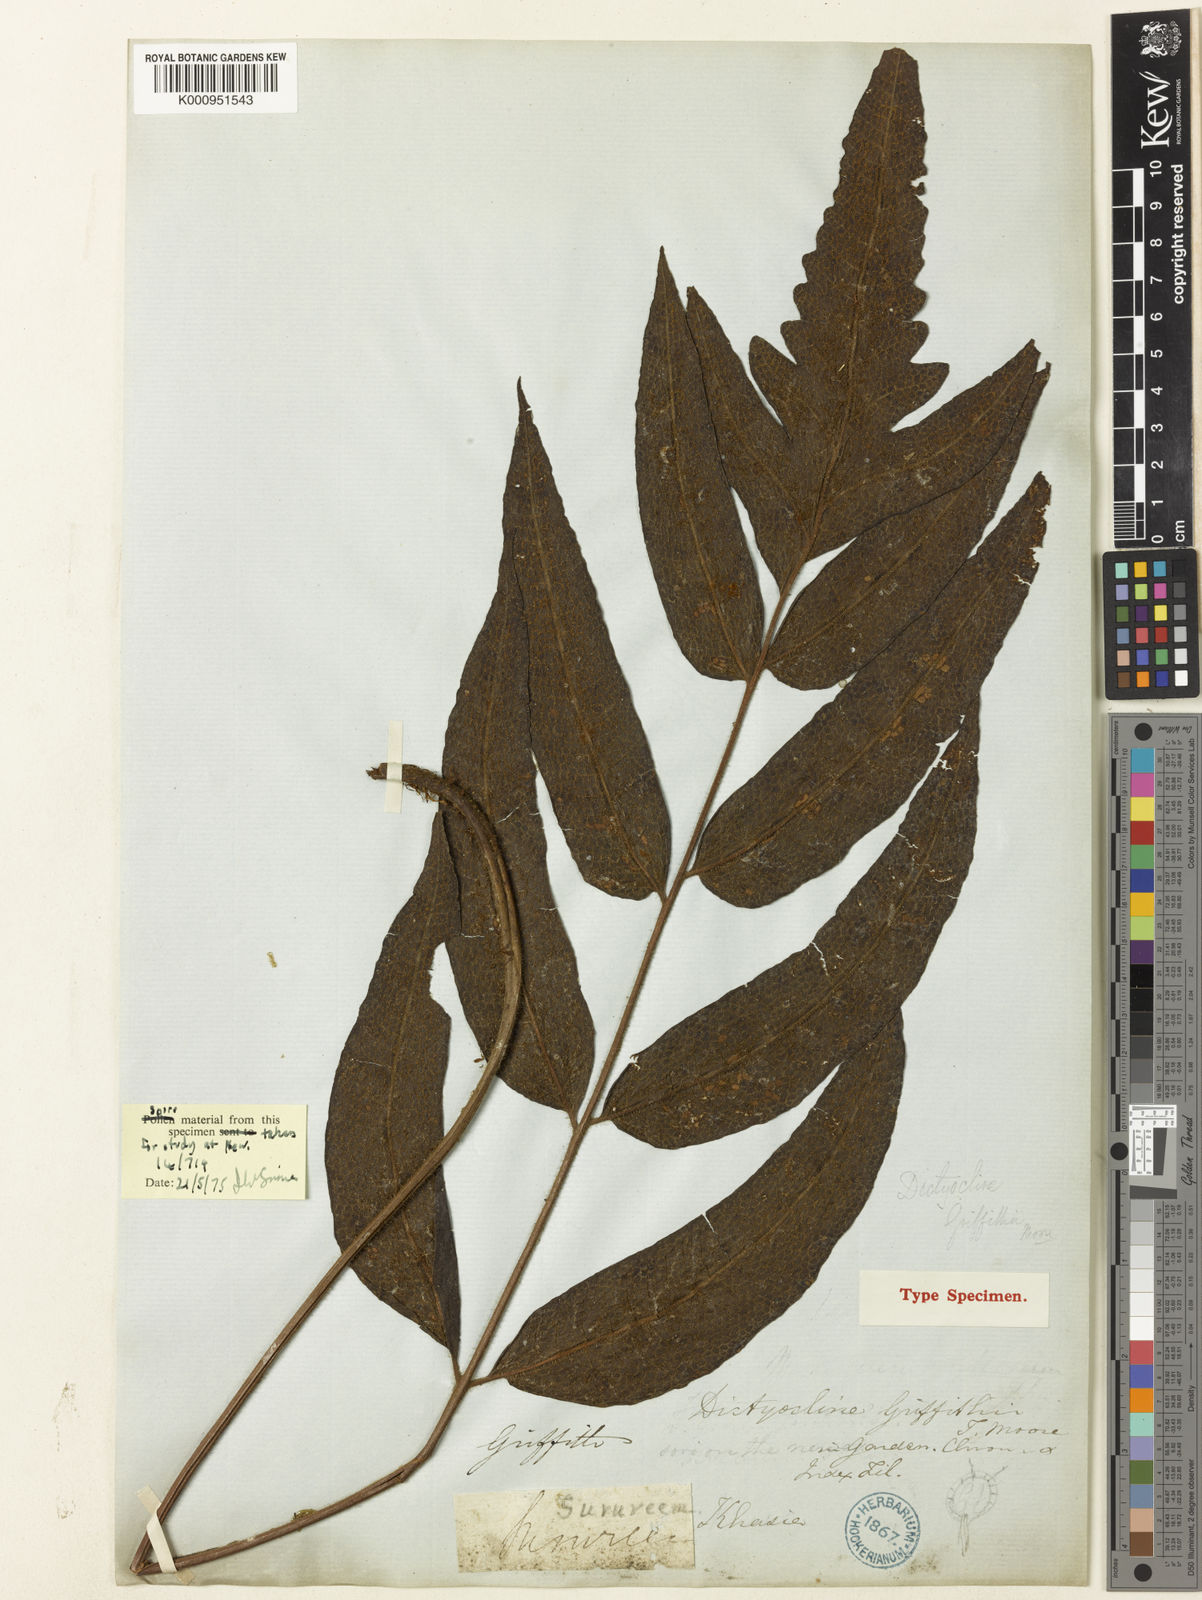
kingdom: Plantae
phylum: Tracheophyta
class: Polypodiopsida
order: Polypodiales
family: Thelypteridaceae
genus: Stegnogramma
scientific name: Stegnogramma griffithii
